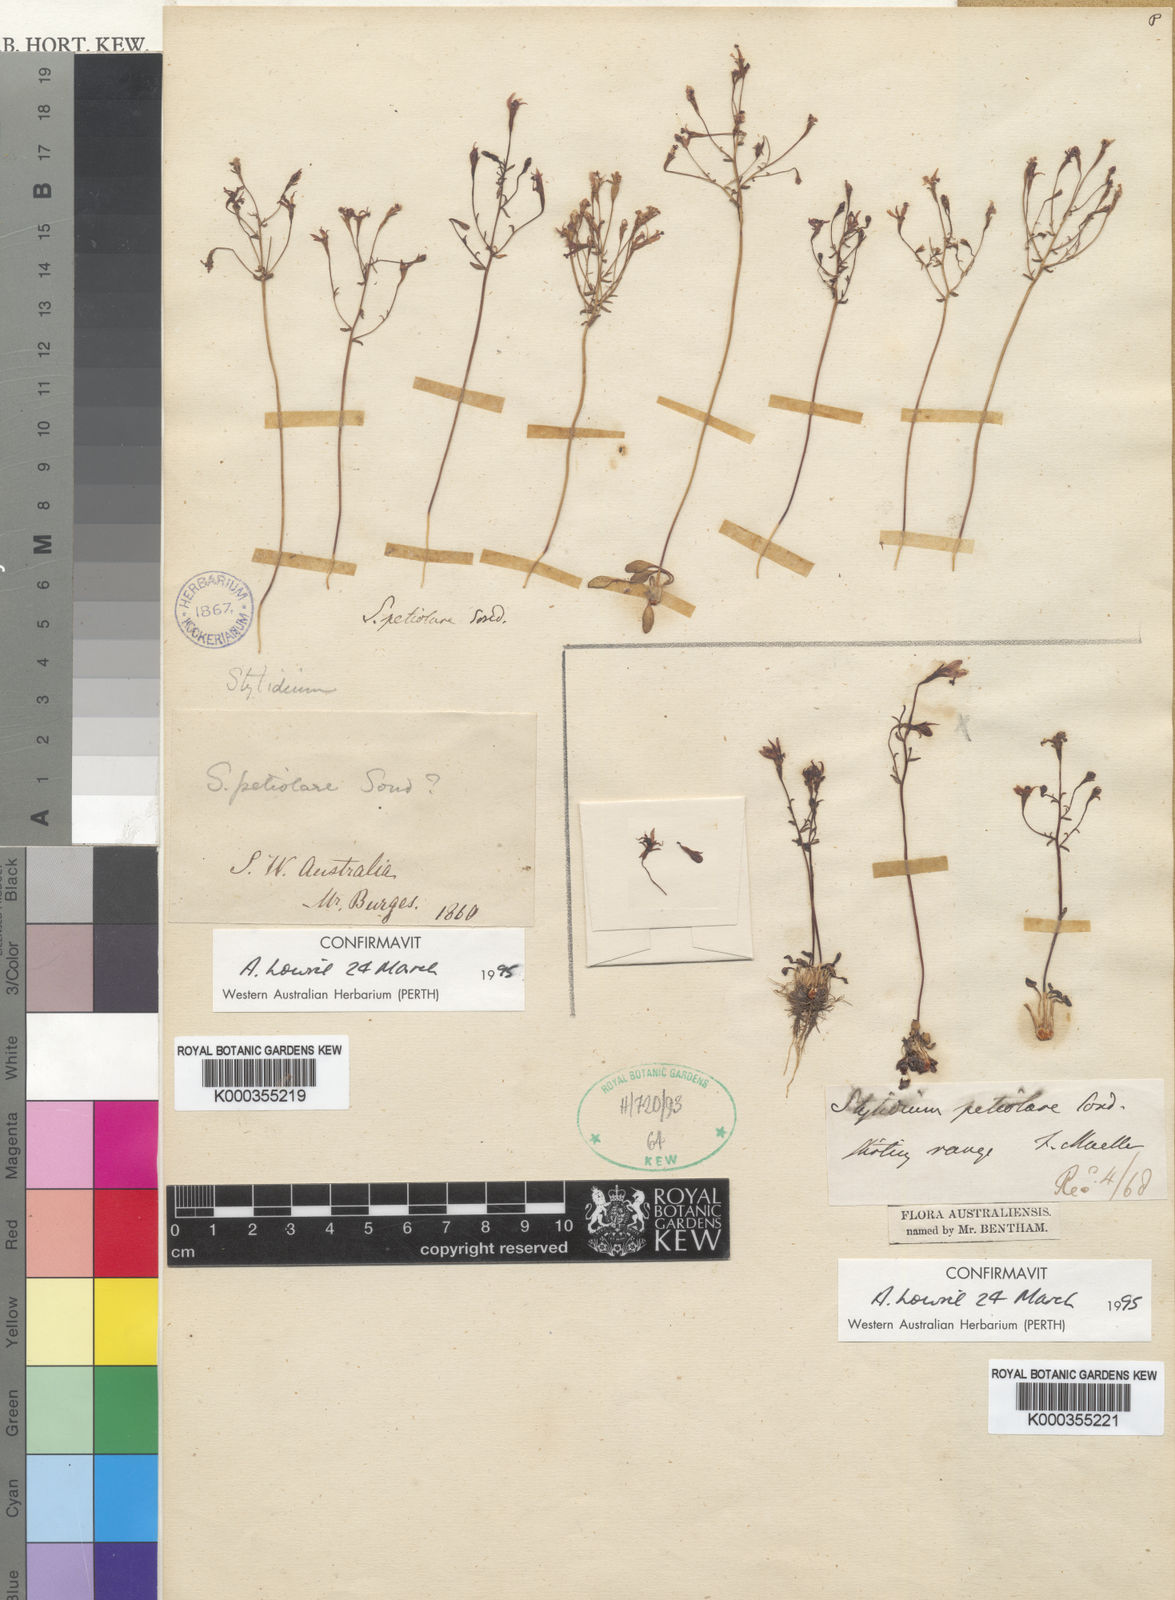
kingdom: Plantae
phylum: Tracheophyta
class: Magnoliopsida
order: Asterales
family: Stylidiaceae
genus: Stylidium
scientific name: Stylidium petiolare
